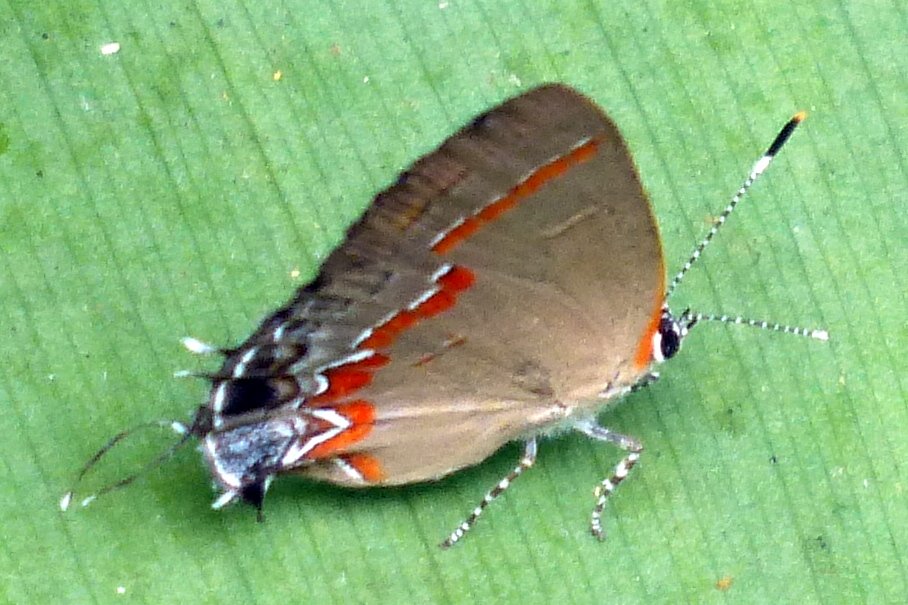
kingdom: Animalia
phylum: Arthropoda
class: Insecta
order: Lepidoptera
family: Lycaenidae
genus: Calycopis
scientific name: Calycopis cecrops
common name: Red-banded Hairstreak
